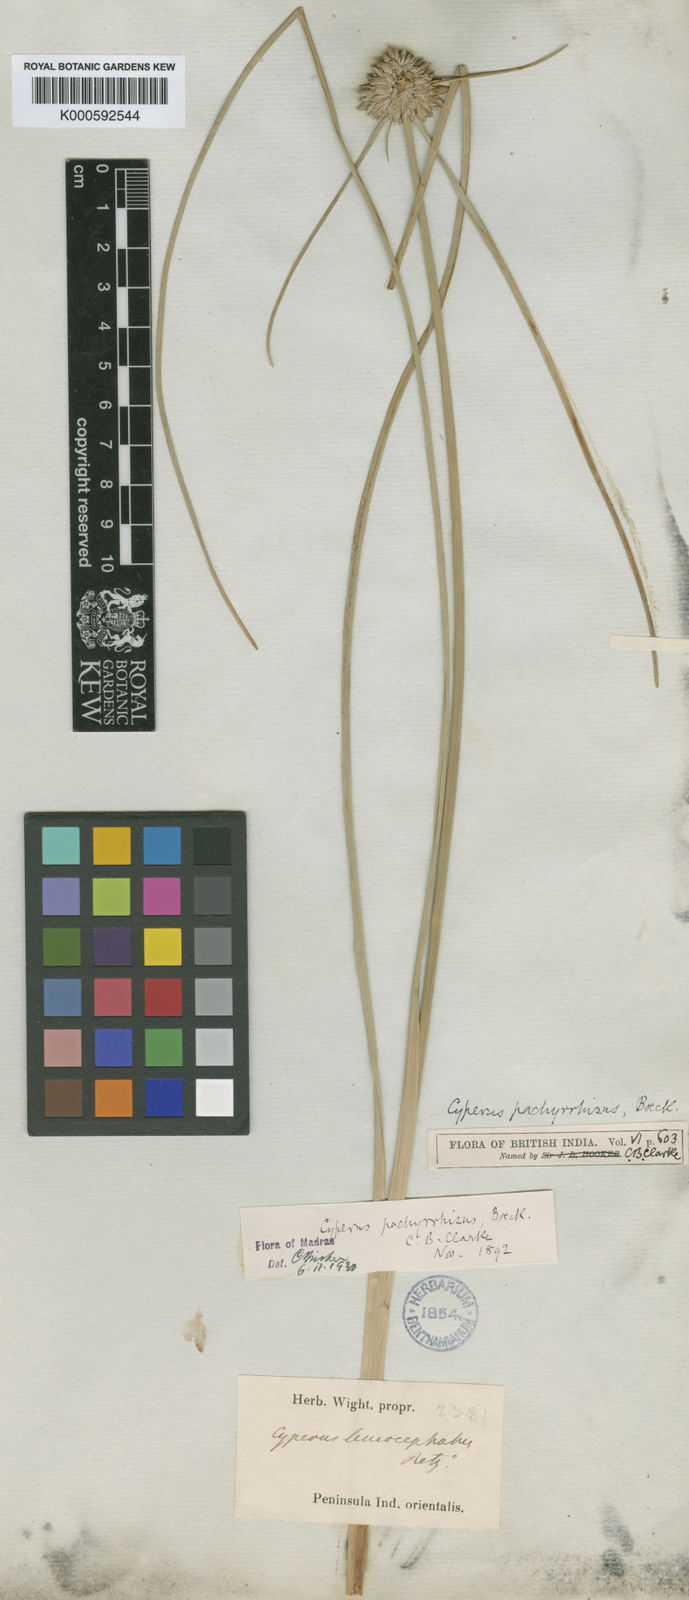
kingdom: Plantae
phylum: Tracheophyta
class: Liliopsida
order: Poales
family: Cyperaceae
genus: Cyperus
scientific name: Cyperus
